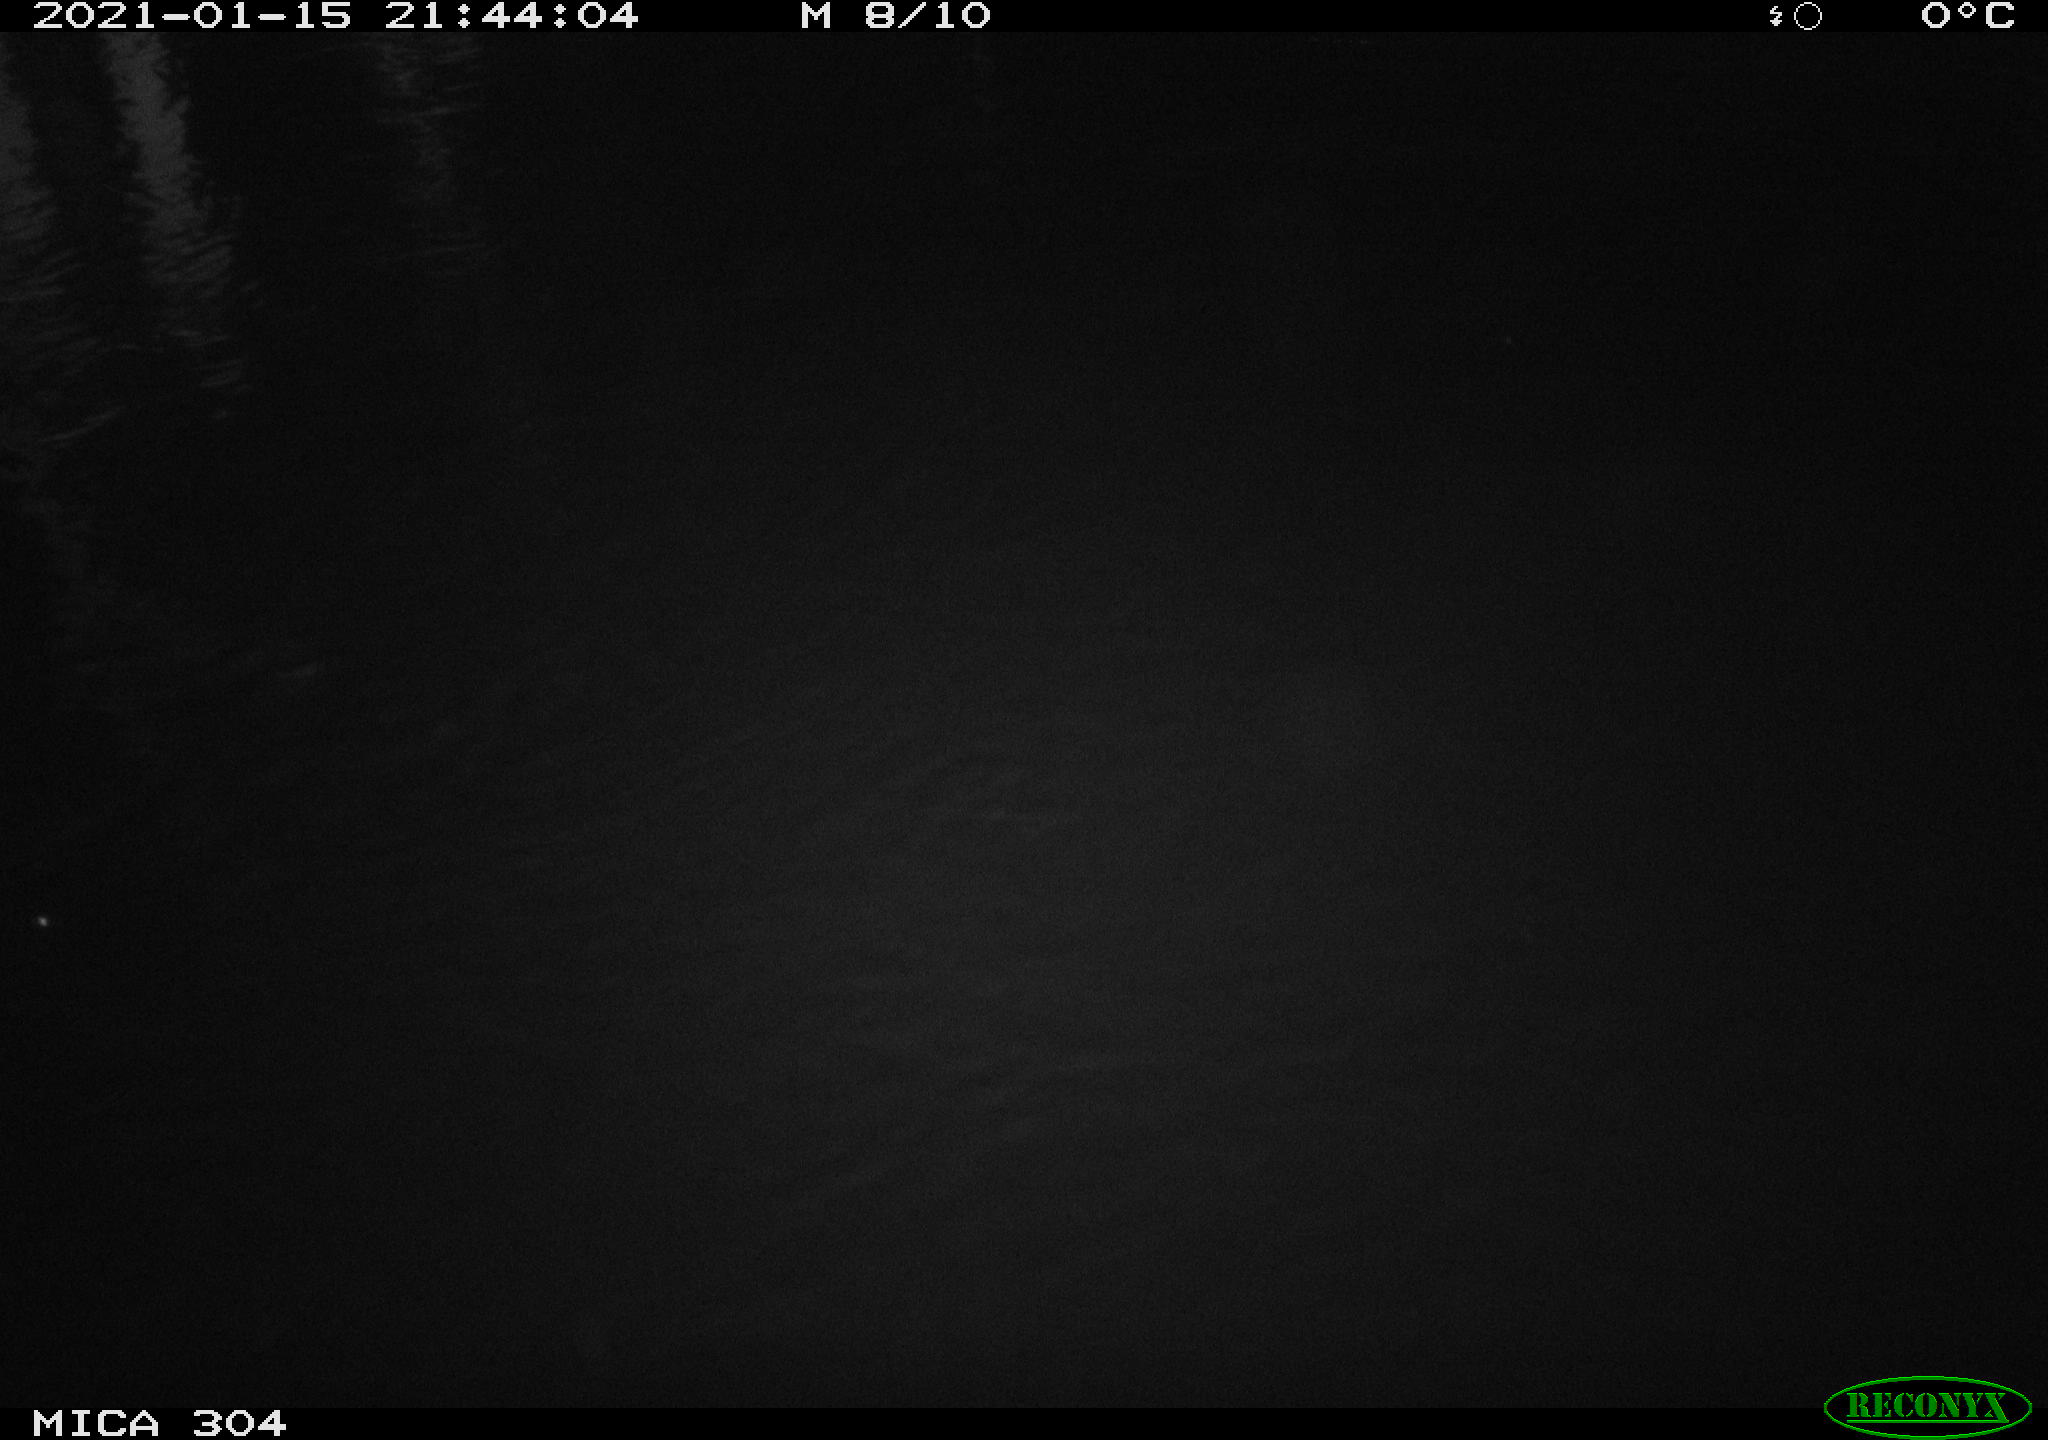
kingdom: Animalia
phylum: Chordata
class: Mammalia
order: Rodentia
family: Muridae
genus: Rattus
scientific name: Rattus norvegicus
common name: Brown rat
